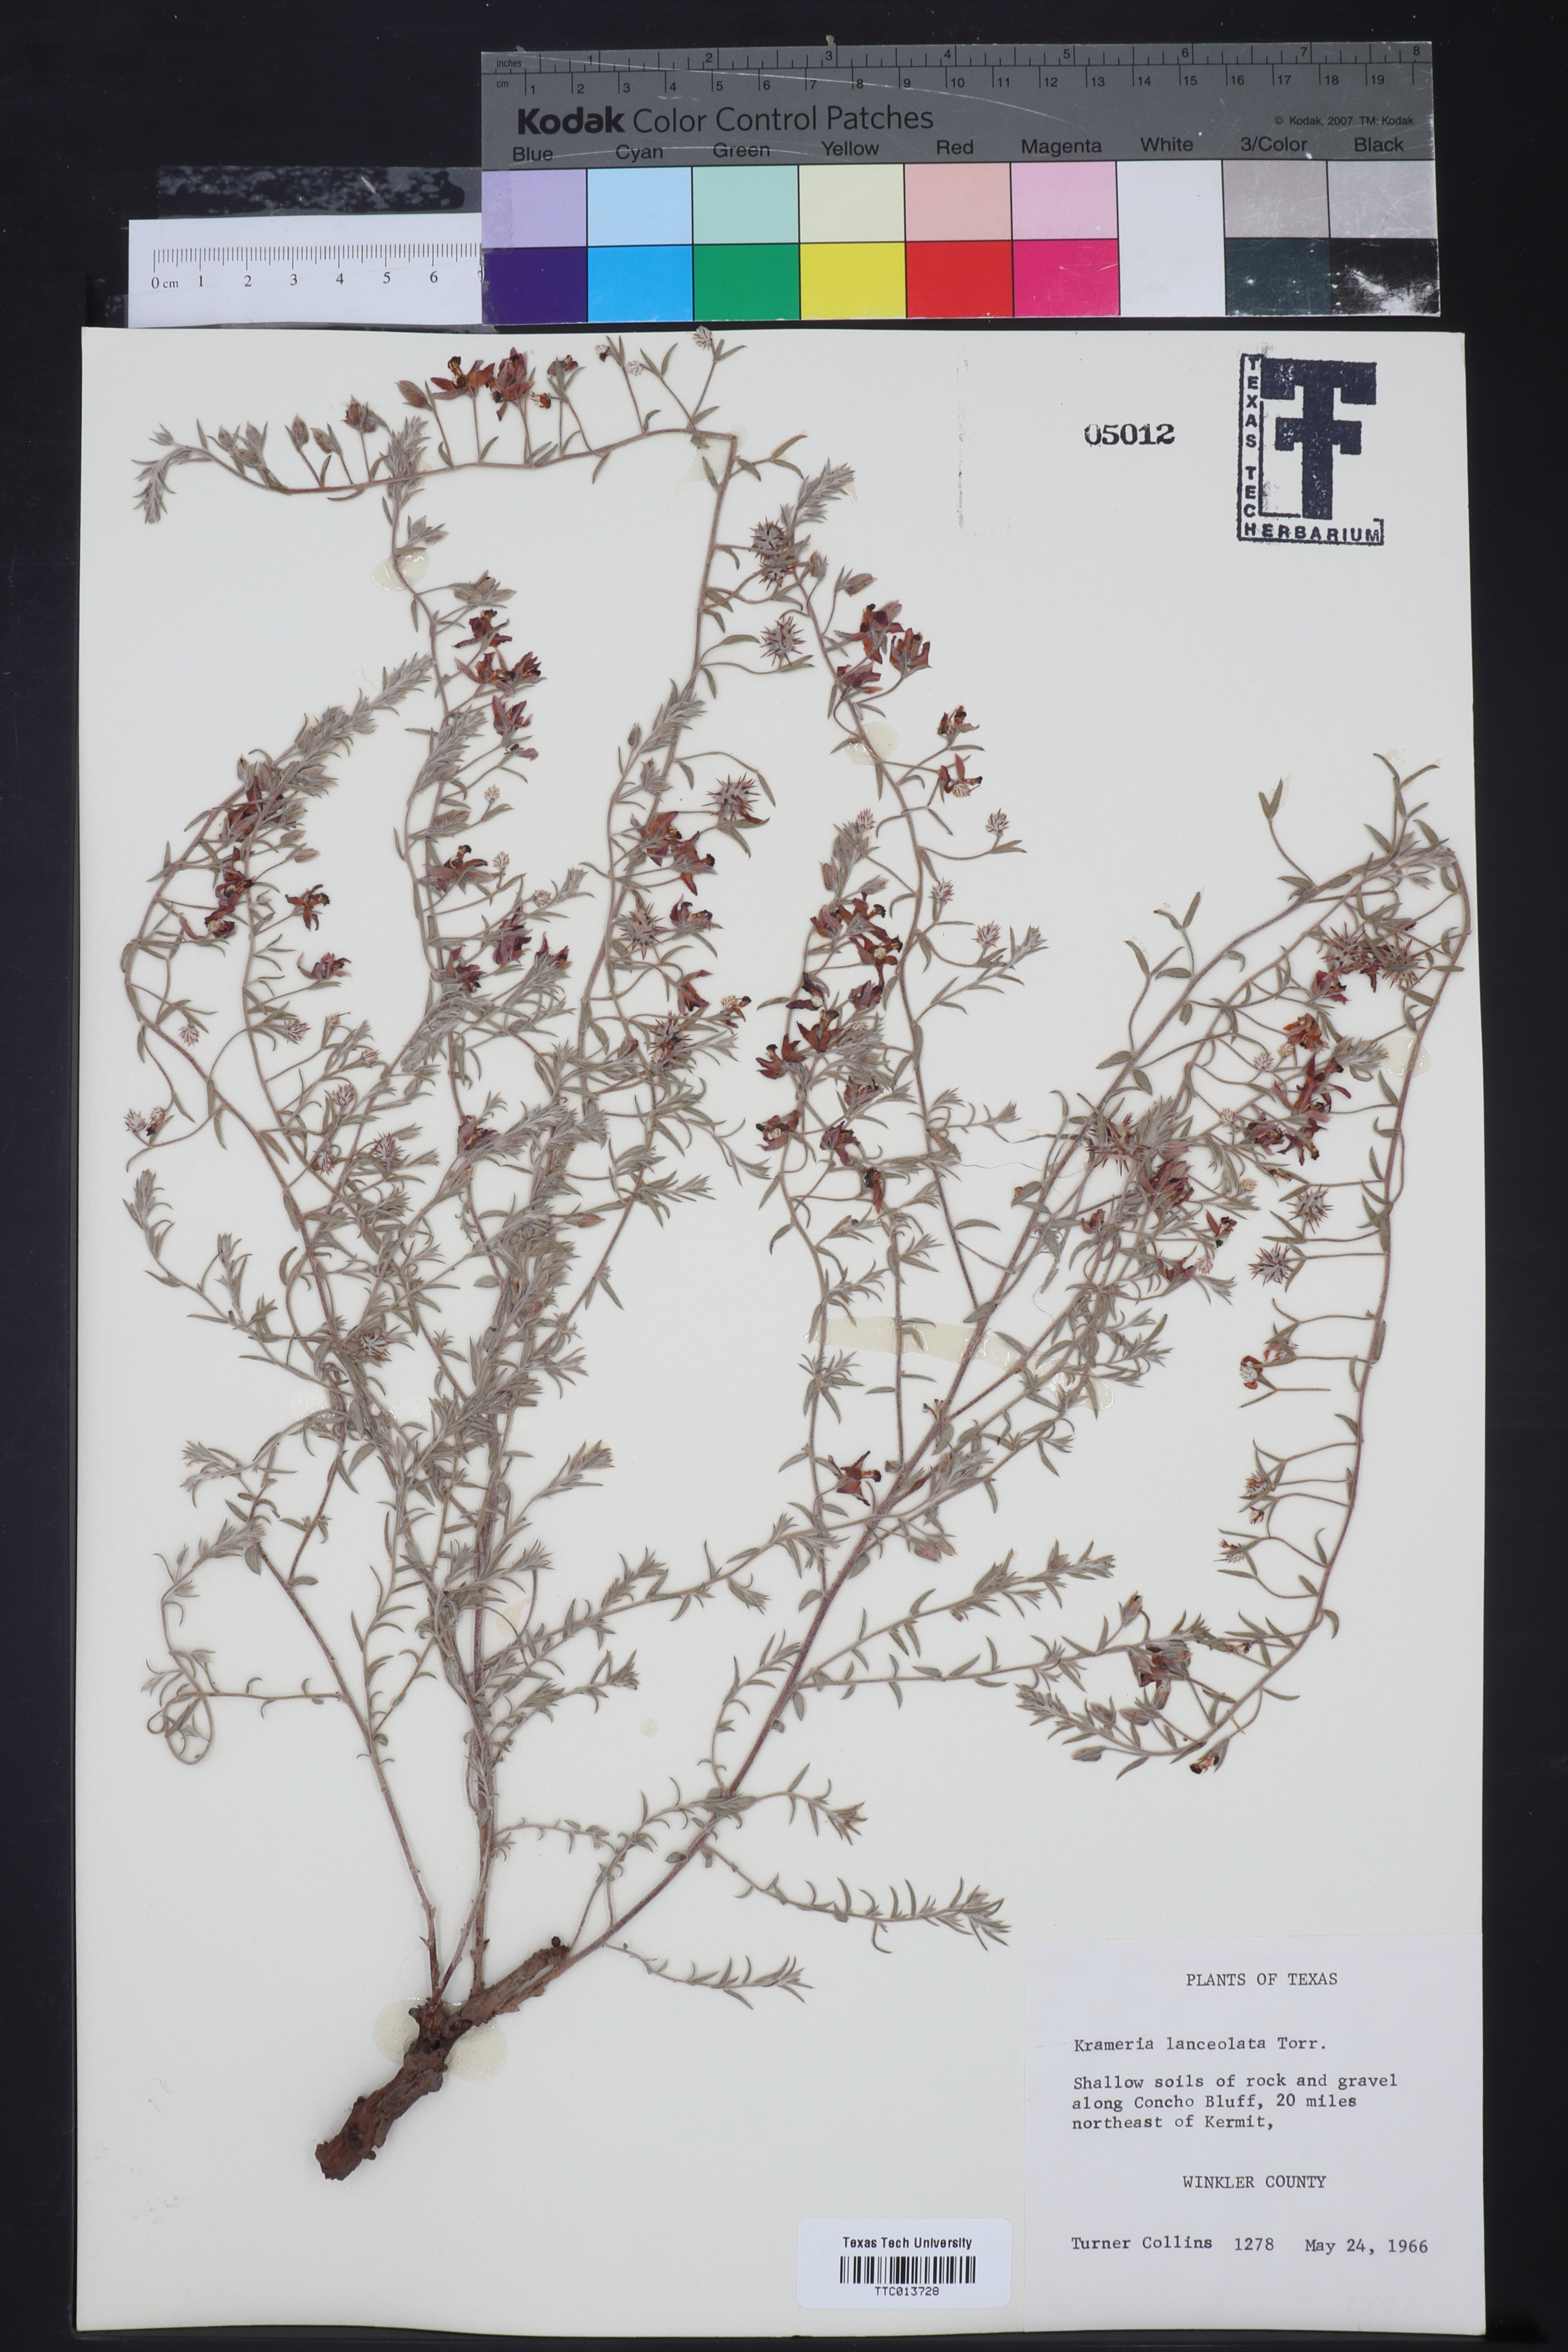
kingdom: Plantae
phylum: Tracheophyta
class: Magnoliopsida
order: Zygophyllales
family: Krameriaceae
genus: Krameria
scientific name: Krameria lanceolata
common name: Ratany
